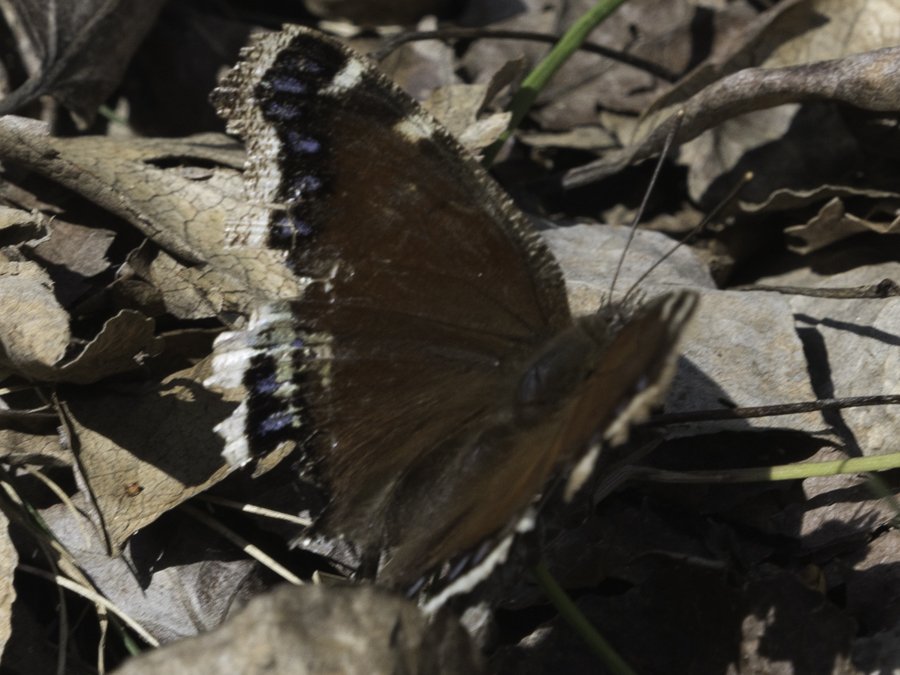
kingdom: Animalia
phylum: Arthropoda
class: Insecta
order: Lepidoptera
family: Nymphalidae
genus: Nymphalis
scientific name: Nymphalis antiopa
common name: Mourning Cloak
